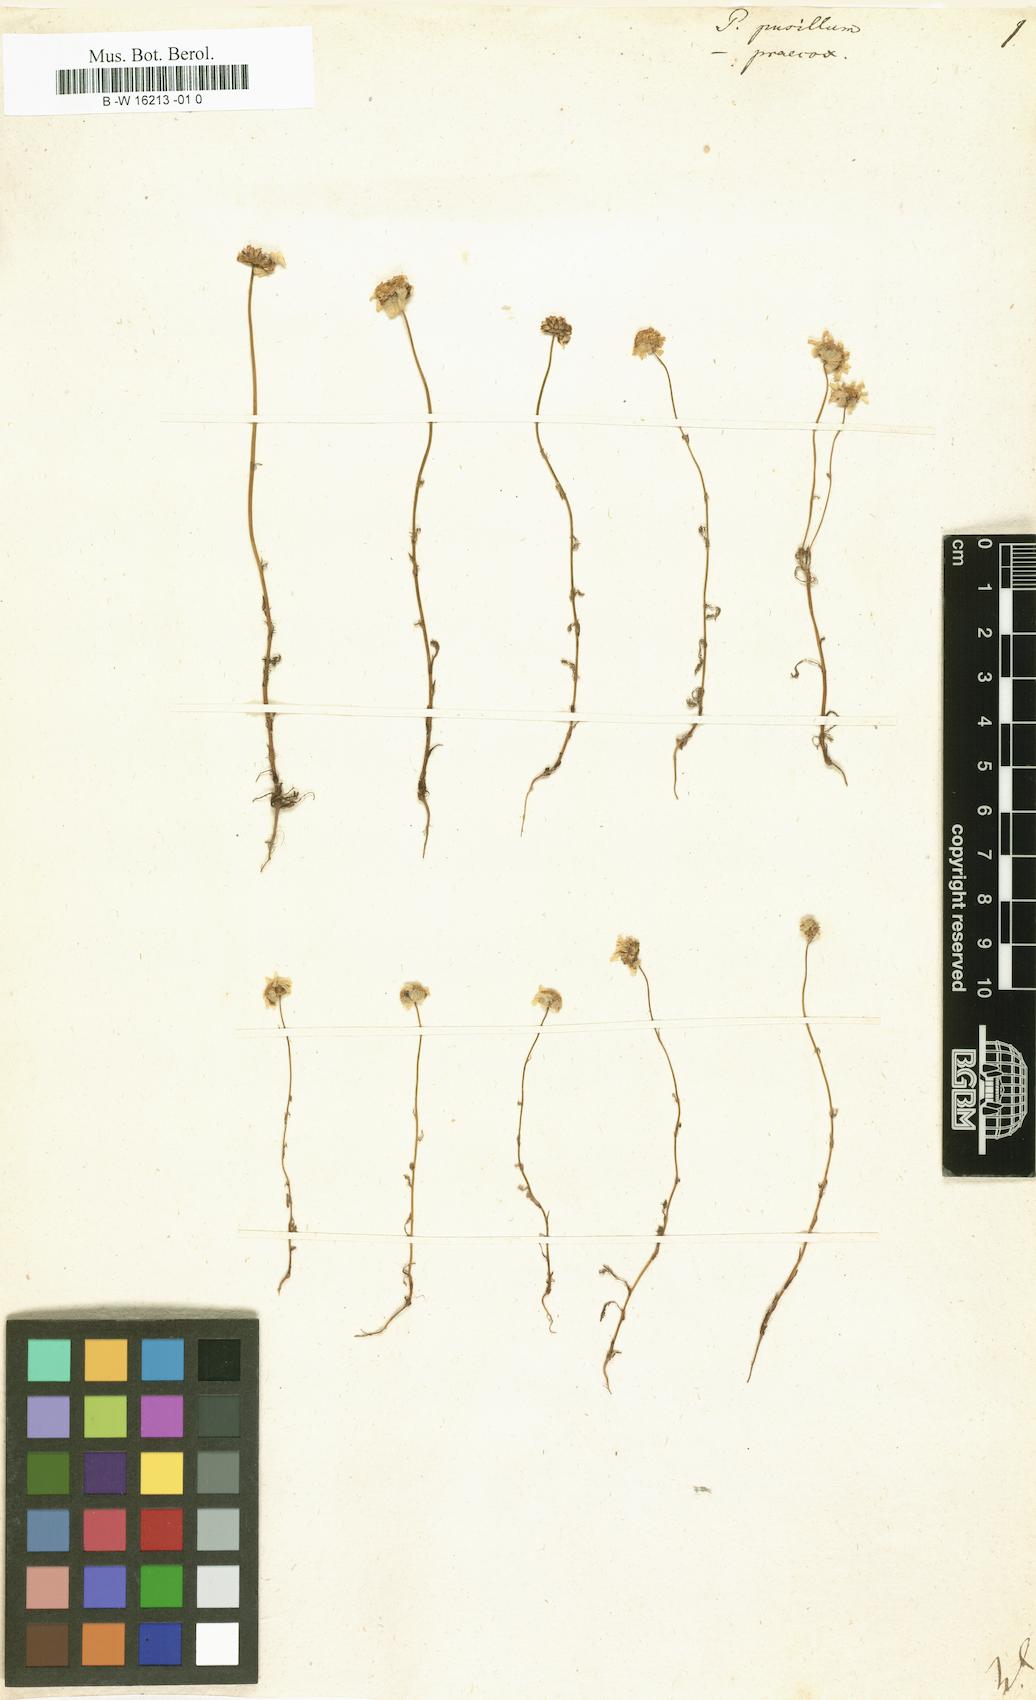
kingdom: Plantae
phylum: Tracheophyta
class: Magnoliopsida
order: Asterales
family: Asteraceae
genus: Tanacetum
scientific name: Tanacetum Pyrethrum pusillum
